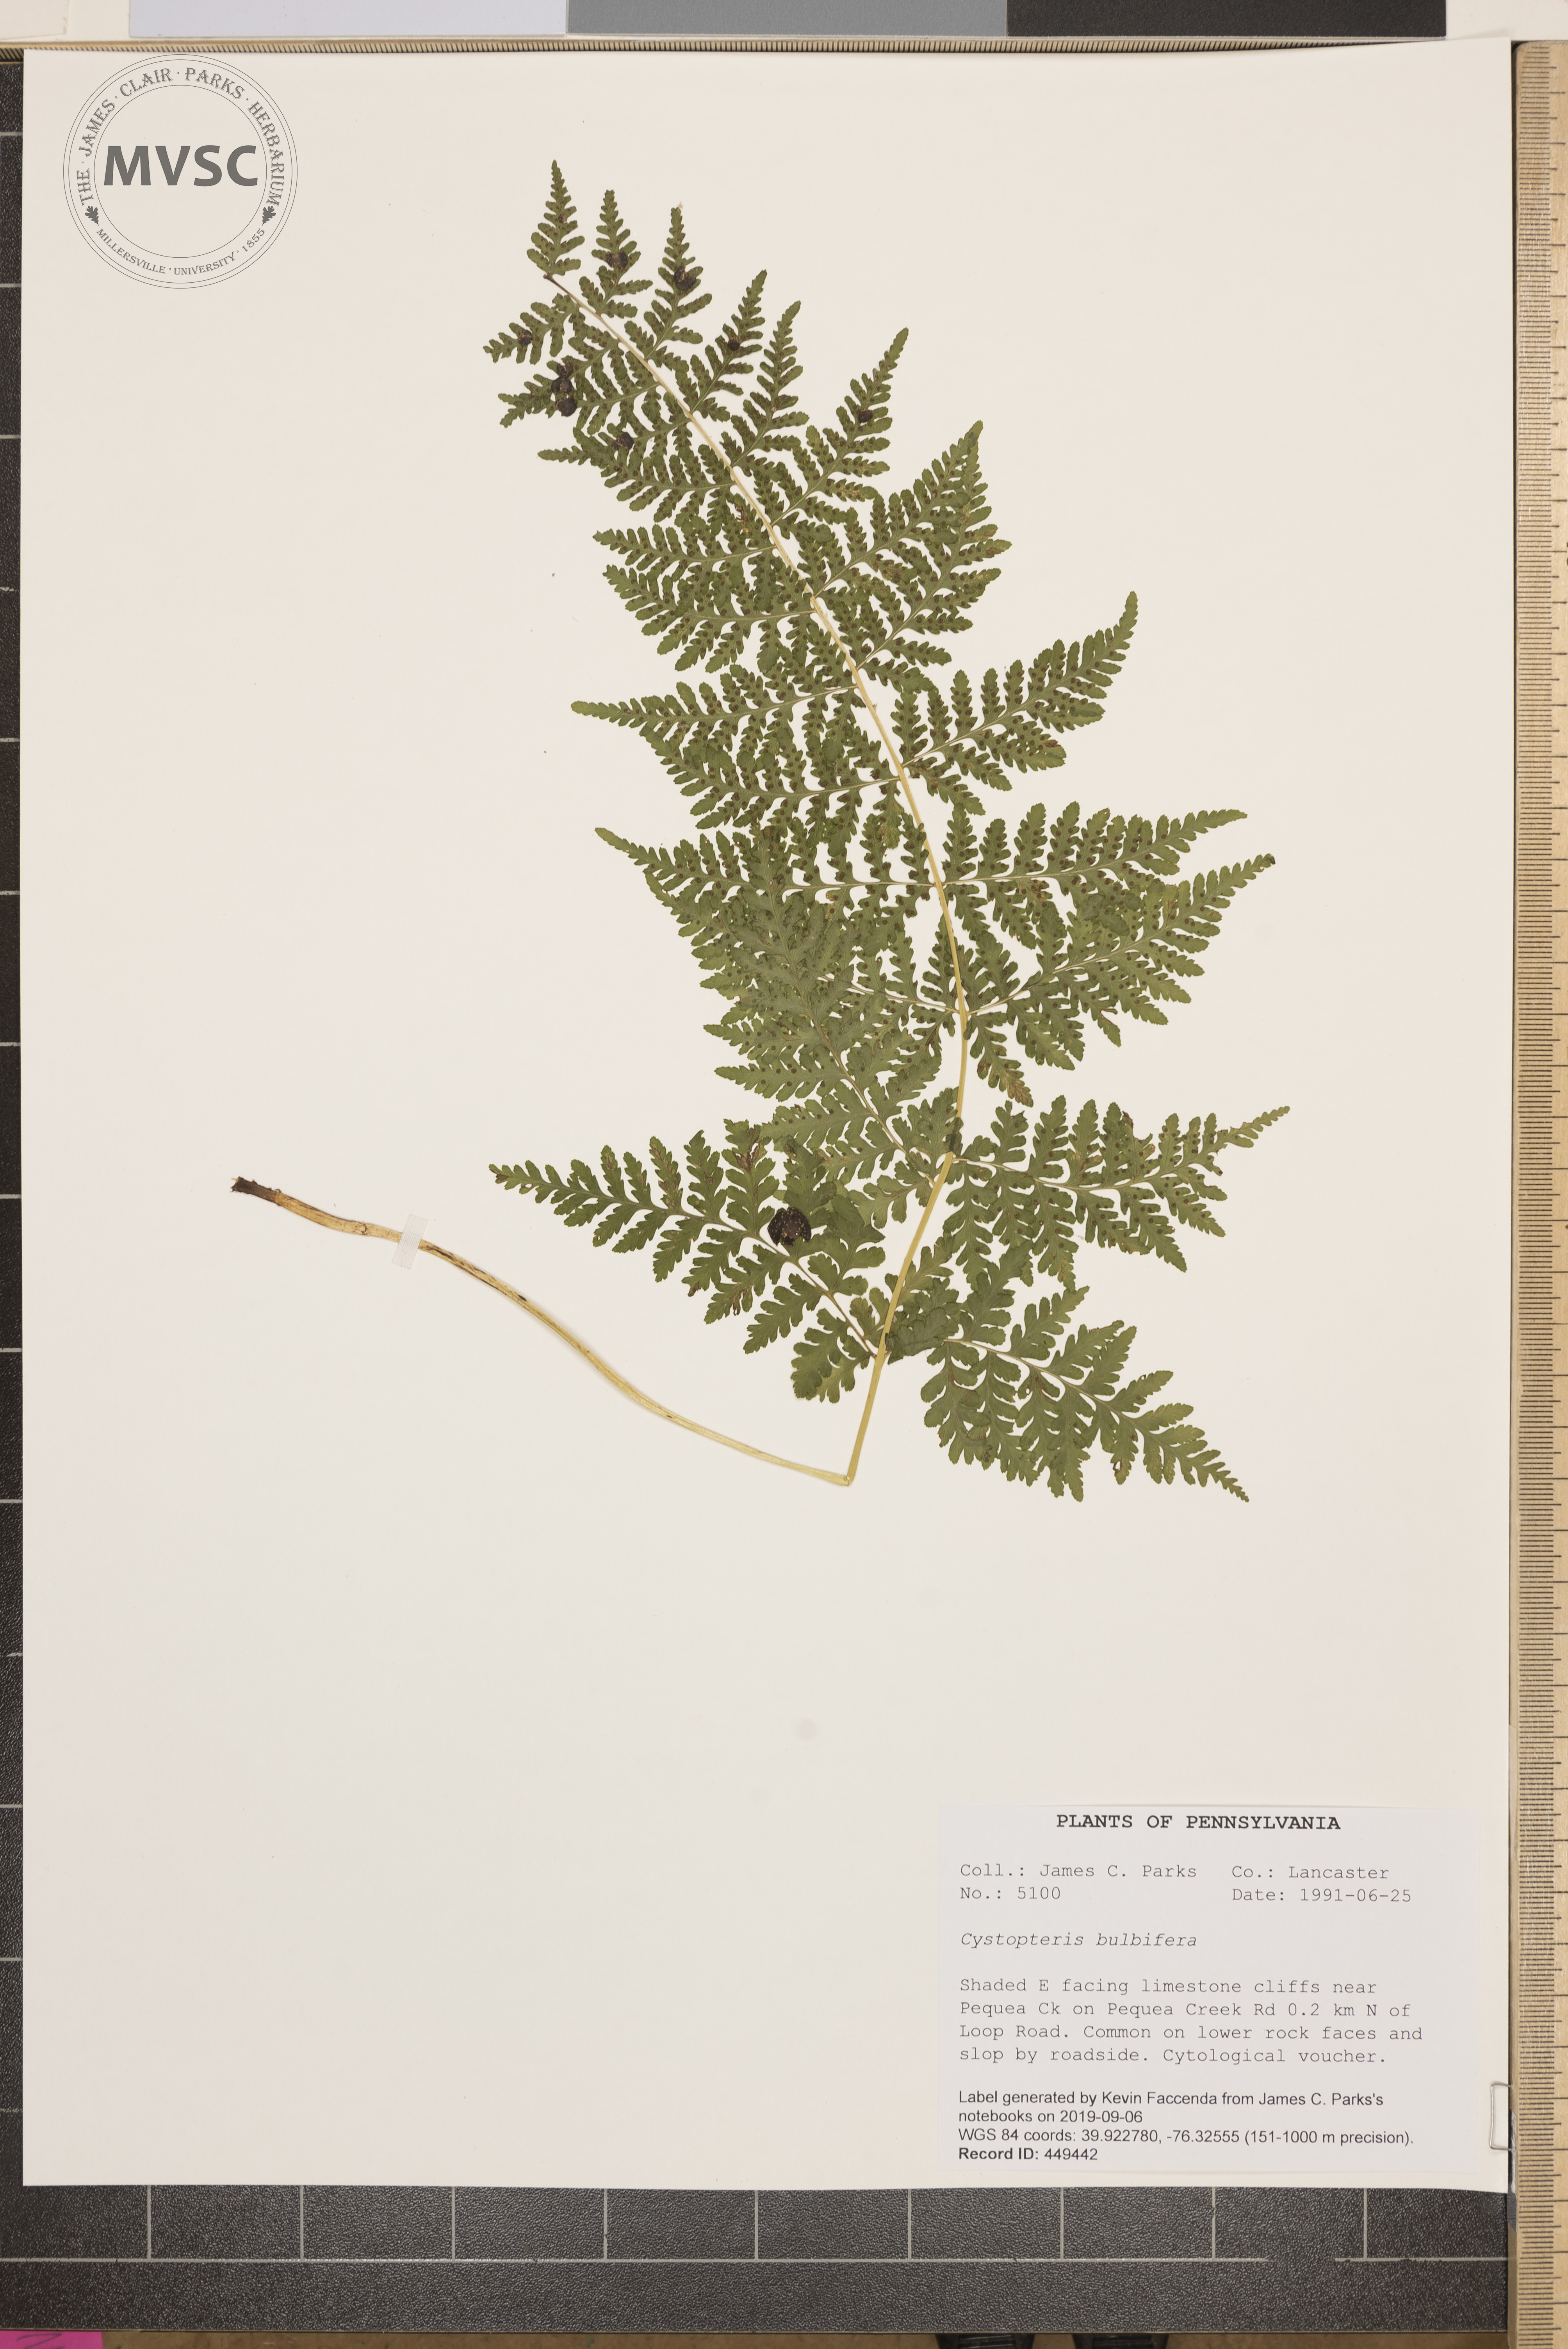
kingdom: Plantae
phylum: Tracheophyta
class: Polypodiopsida
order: Polypodiales
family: Cystopteridaceae
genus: Cystopteris
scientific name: Cystopteris bulbifera
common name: Bulblet bladder fern
